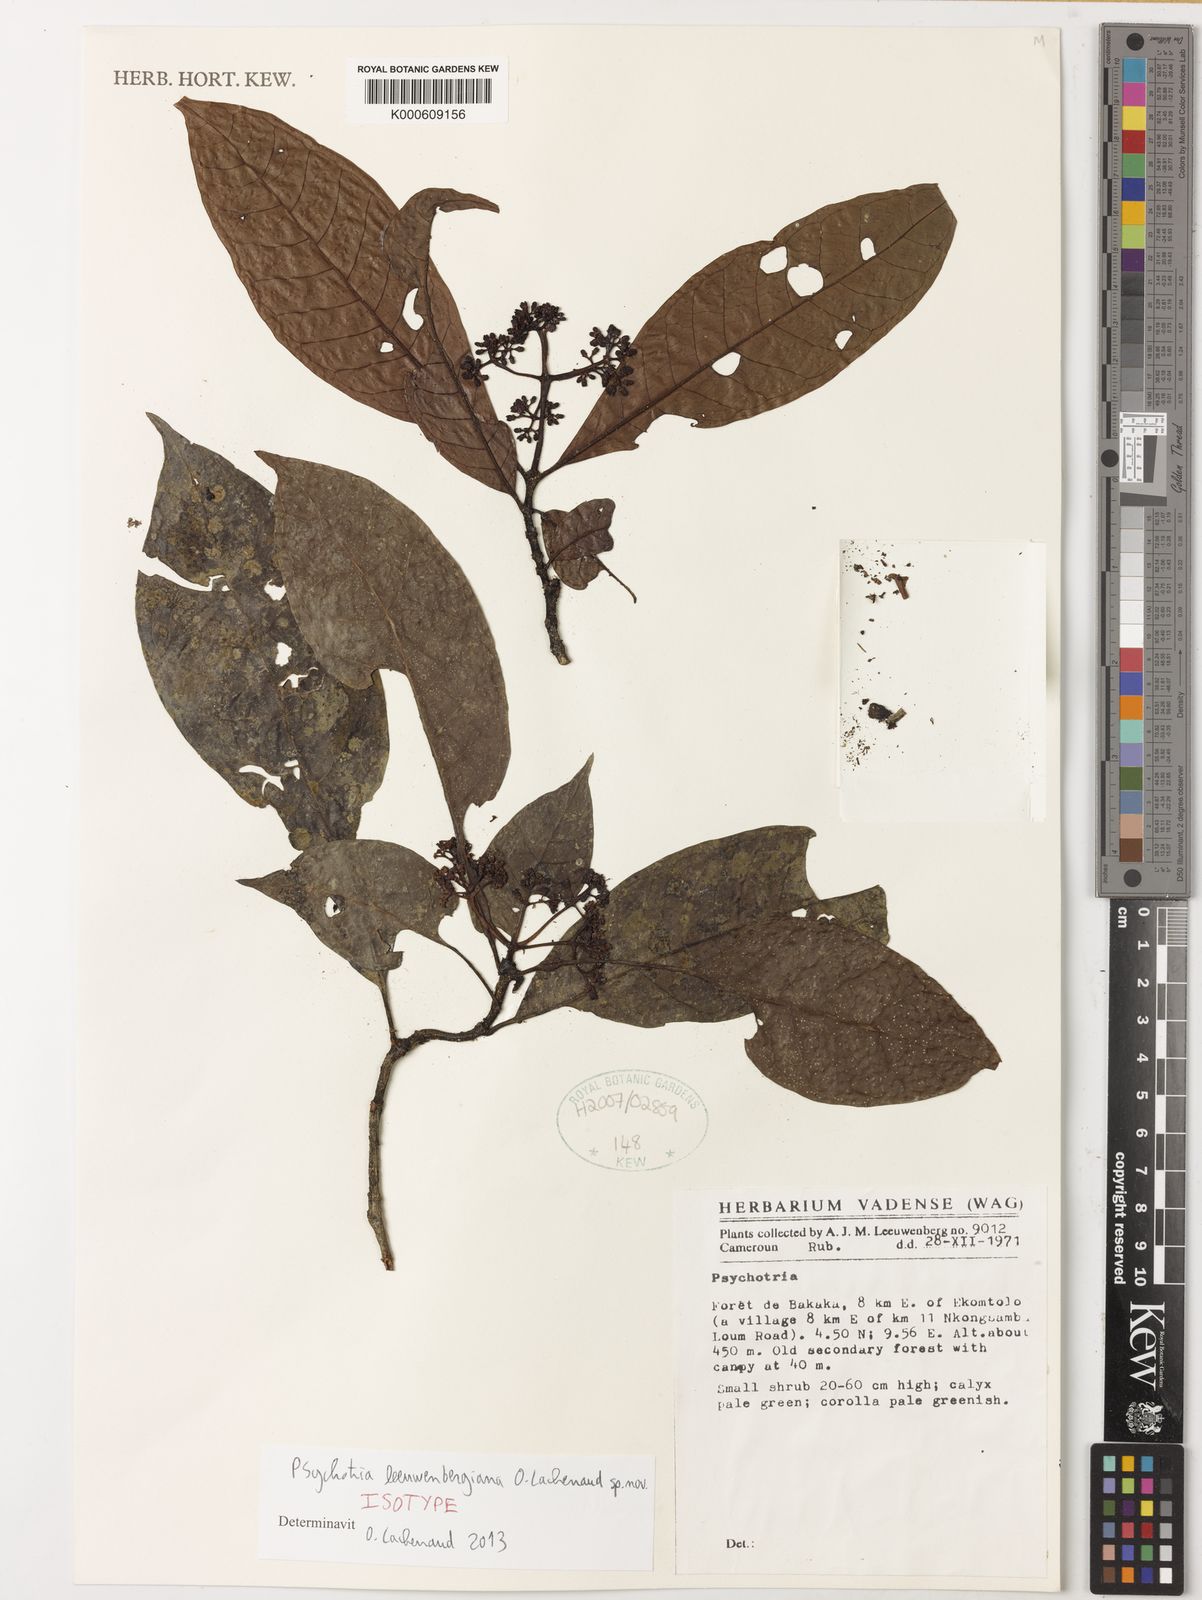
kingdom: Plantae
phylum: Tracheophyta
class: Magnoliopsida
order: Gentianales
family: Rubiaceae
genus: Psychotria
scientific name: Psychotria leeuwenbergiana
